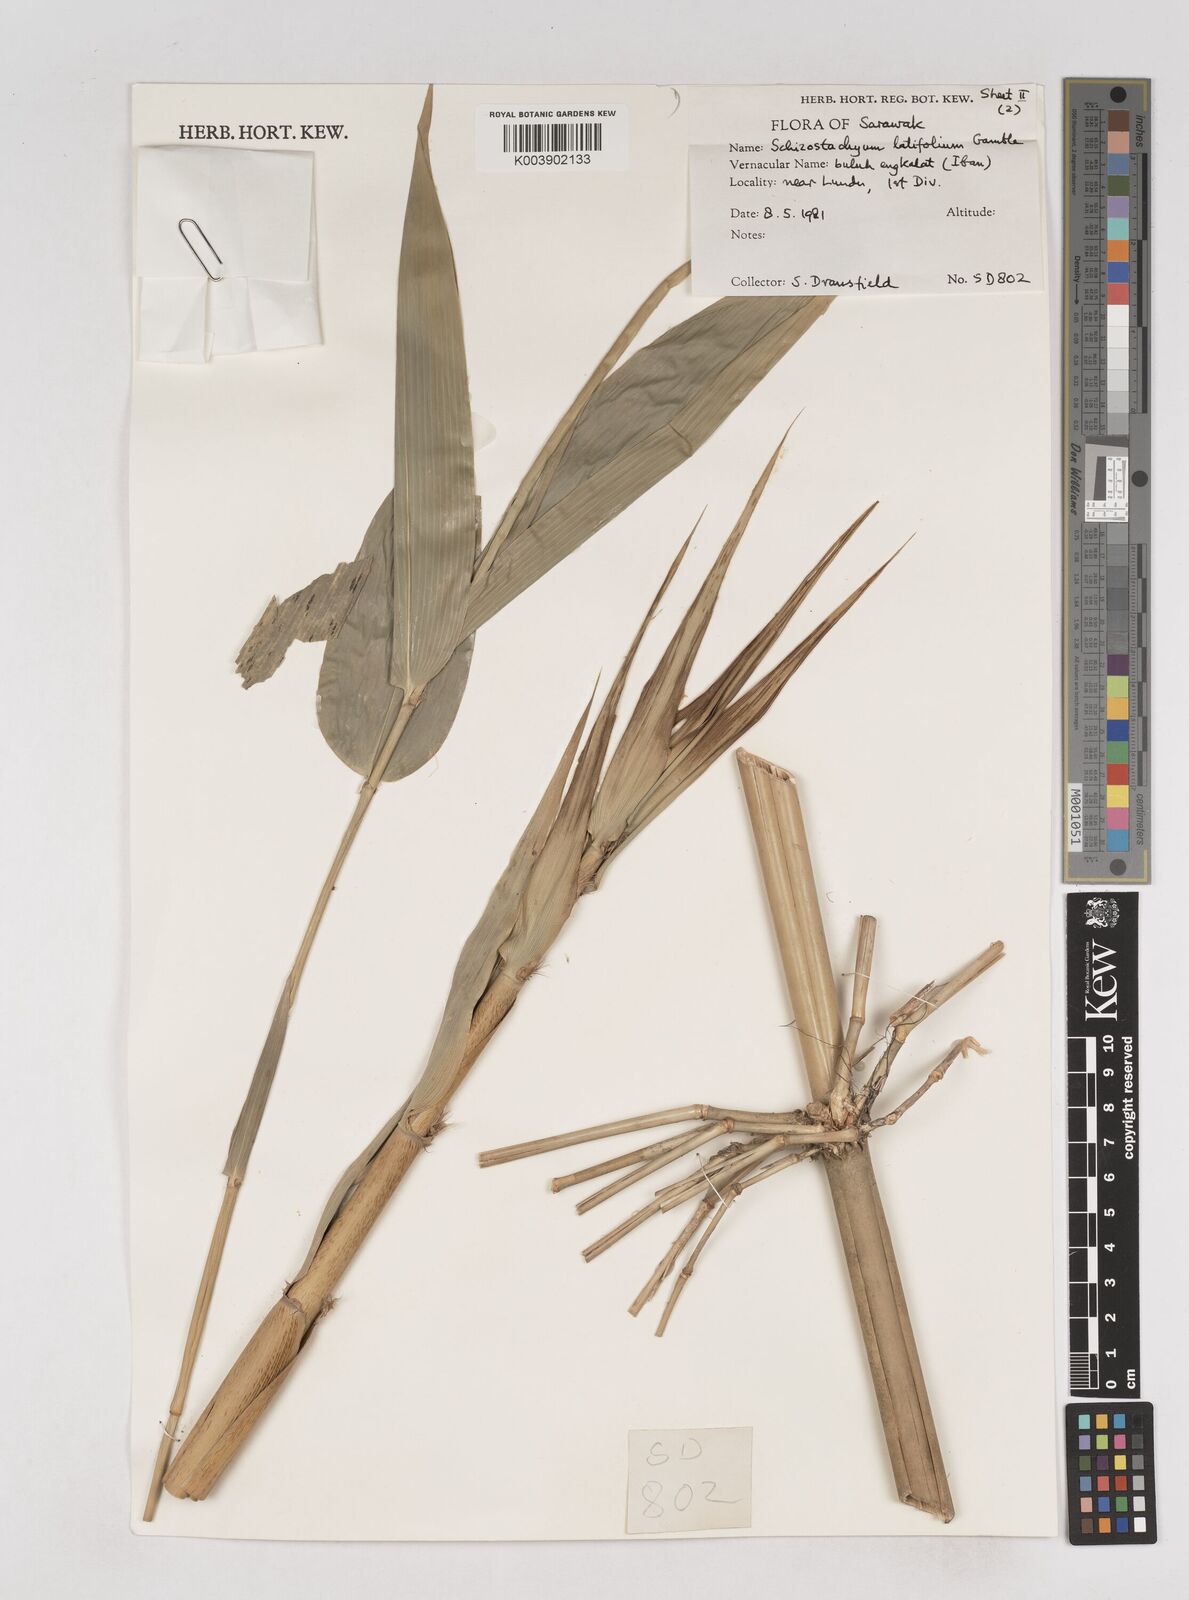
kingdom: Plantae
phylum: Tracheophyta
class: Liliopsida
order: Poales
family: Poaceae
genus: Schizostachyum
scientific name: Schizostachyum
